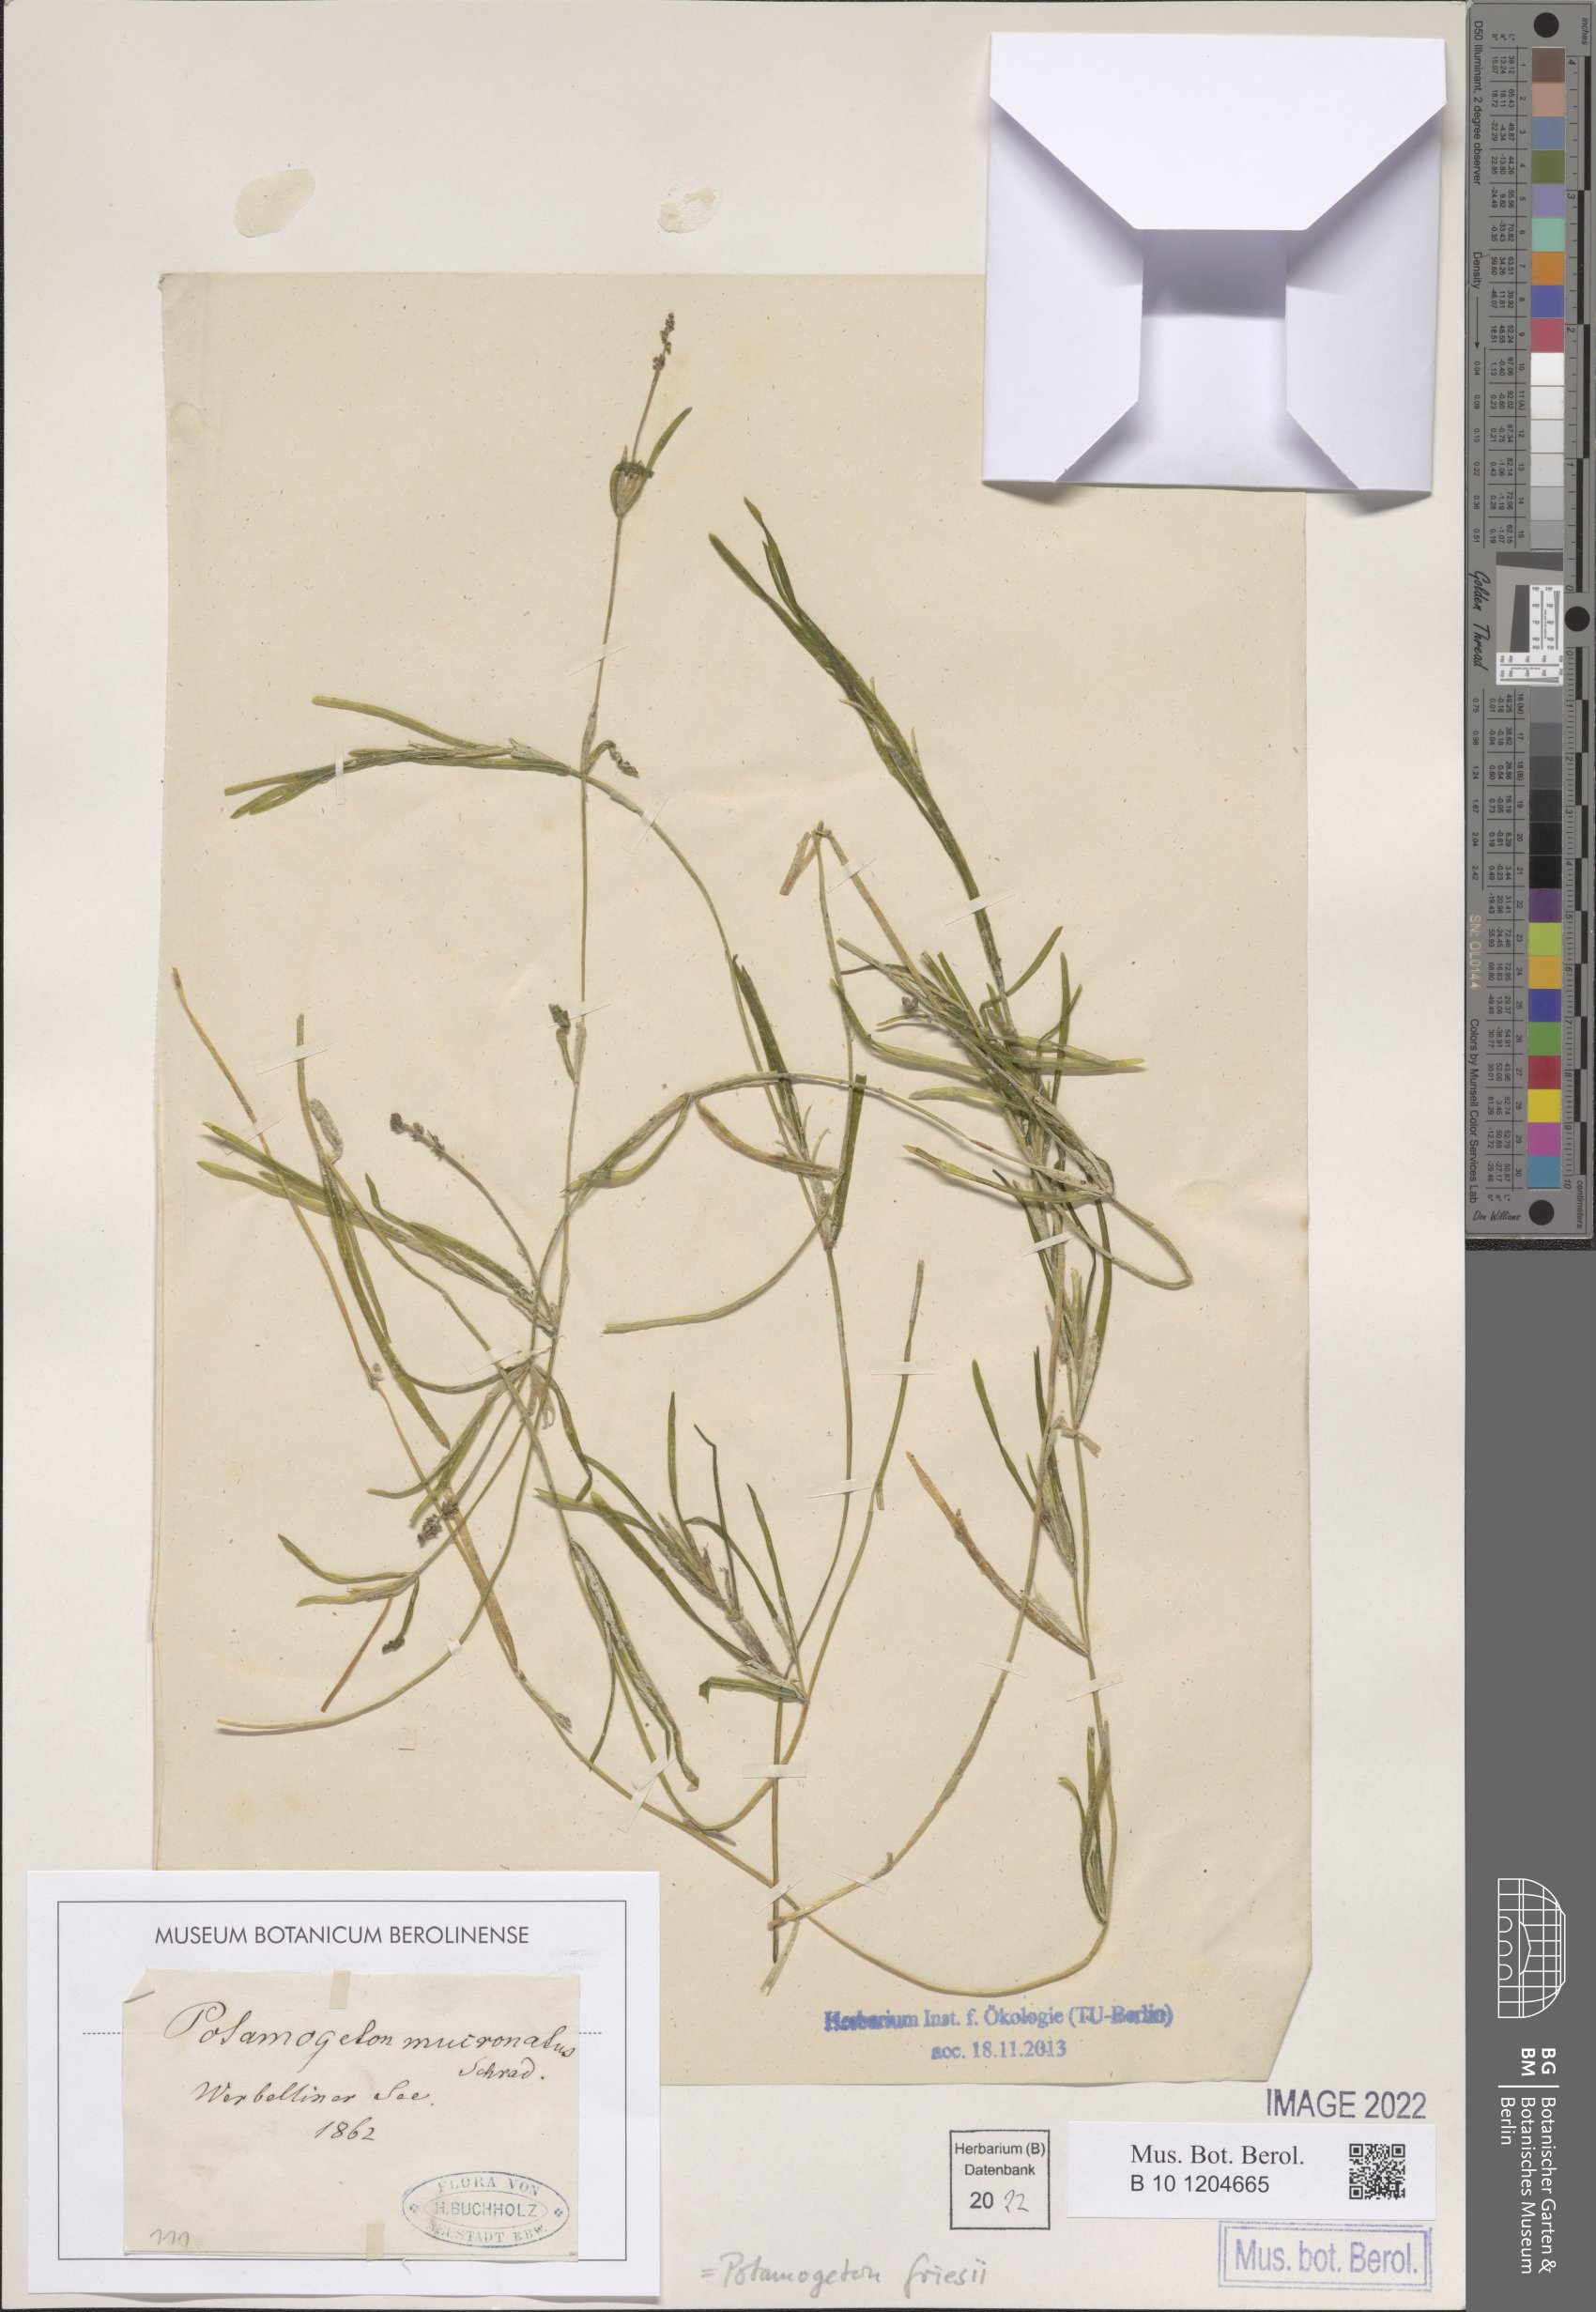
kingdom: Plantae
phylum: Tracheophyta
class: Liliopsida
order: Alismatales
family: Potamogetonaceae
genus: Potamogeton
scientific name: Potamogeton friesii
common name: Flat-stalked pondweed
